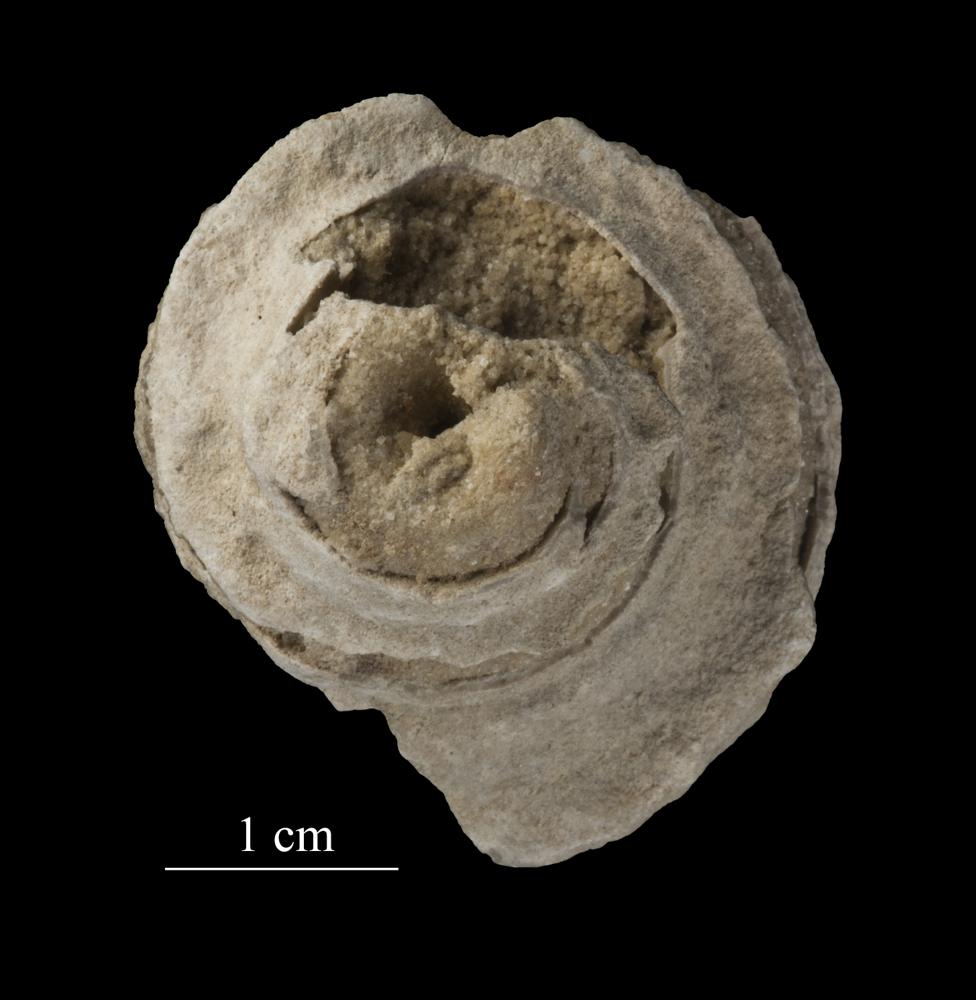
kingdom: Animalia
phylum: Mollusca
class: Gastropoda
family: Lophospiridae
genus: Ruedemannia
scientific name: Ruedemannia Worthenia borkholmiensis
